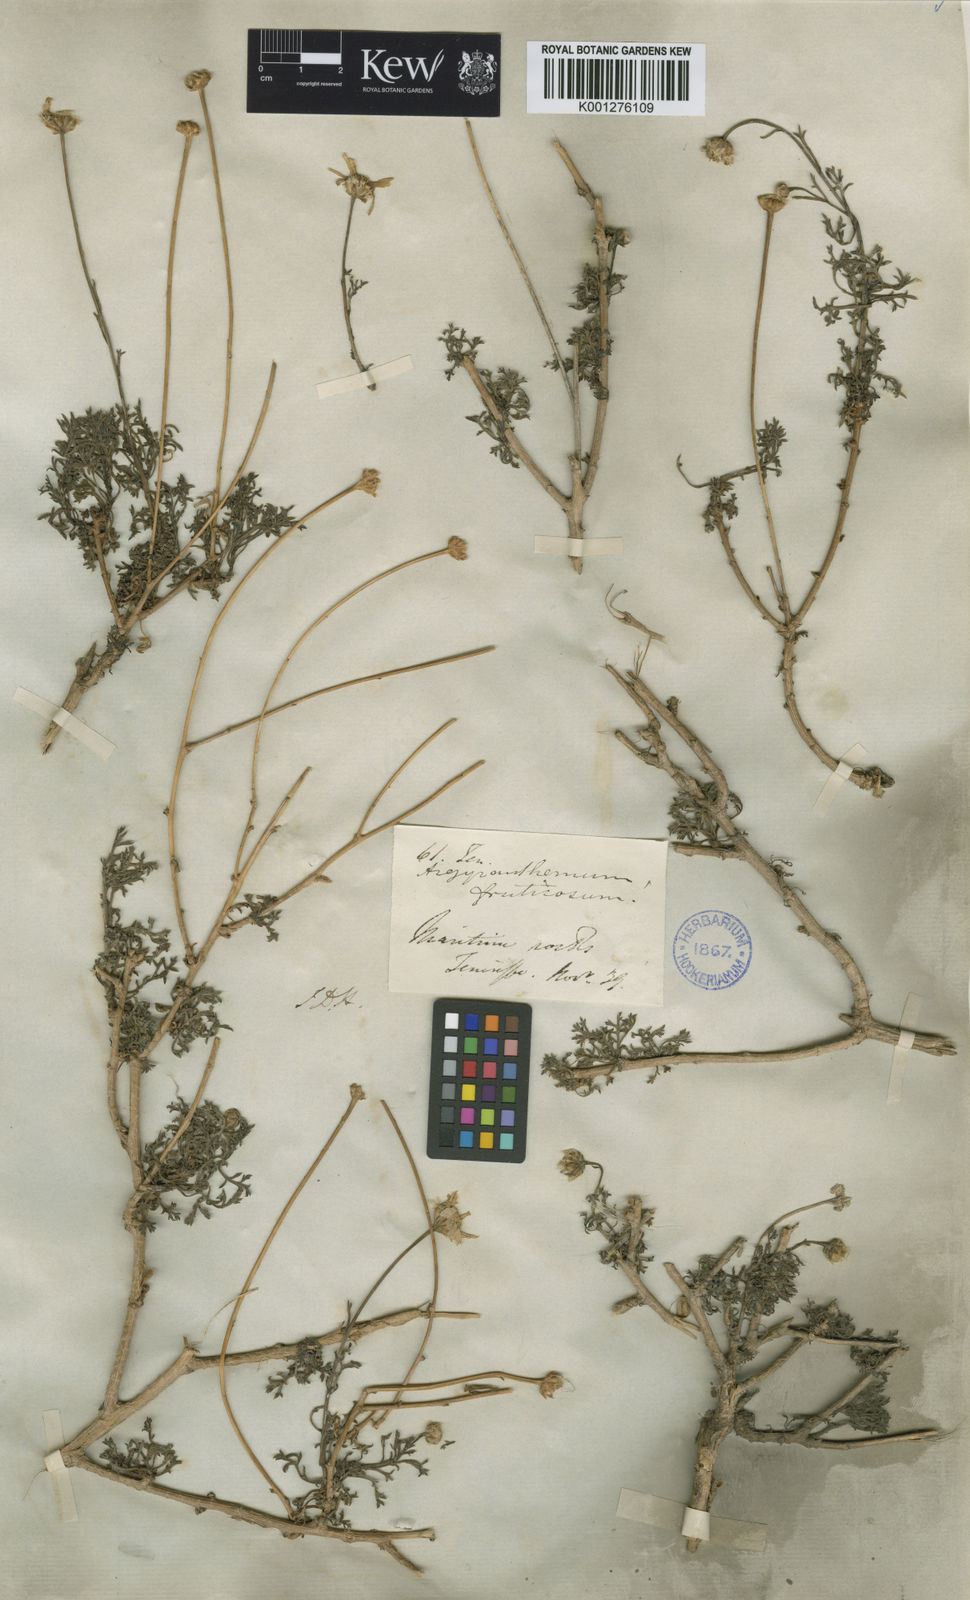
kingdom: Plantae
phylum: Tracheophyta
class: Magnoliopsida
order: Asterales
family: Asteraceae
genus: Argyranthemum
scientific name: Argyranthemum frutescens
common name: Paris daisy
